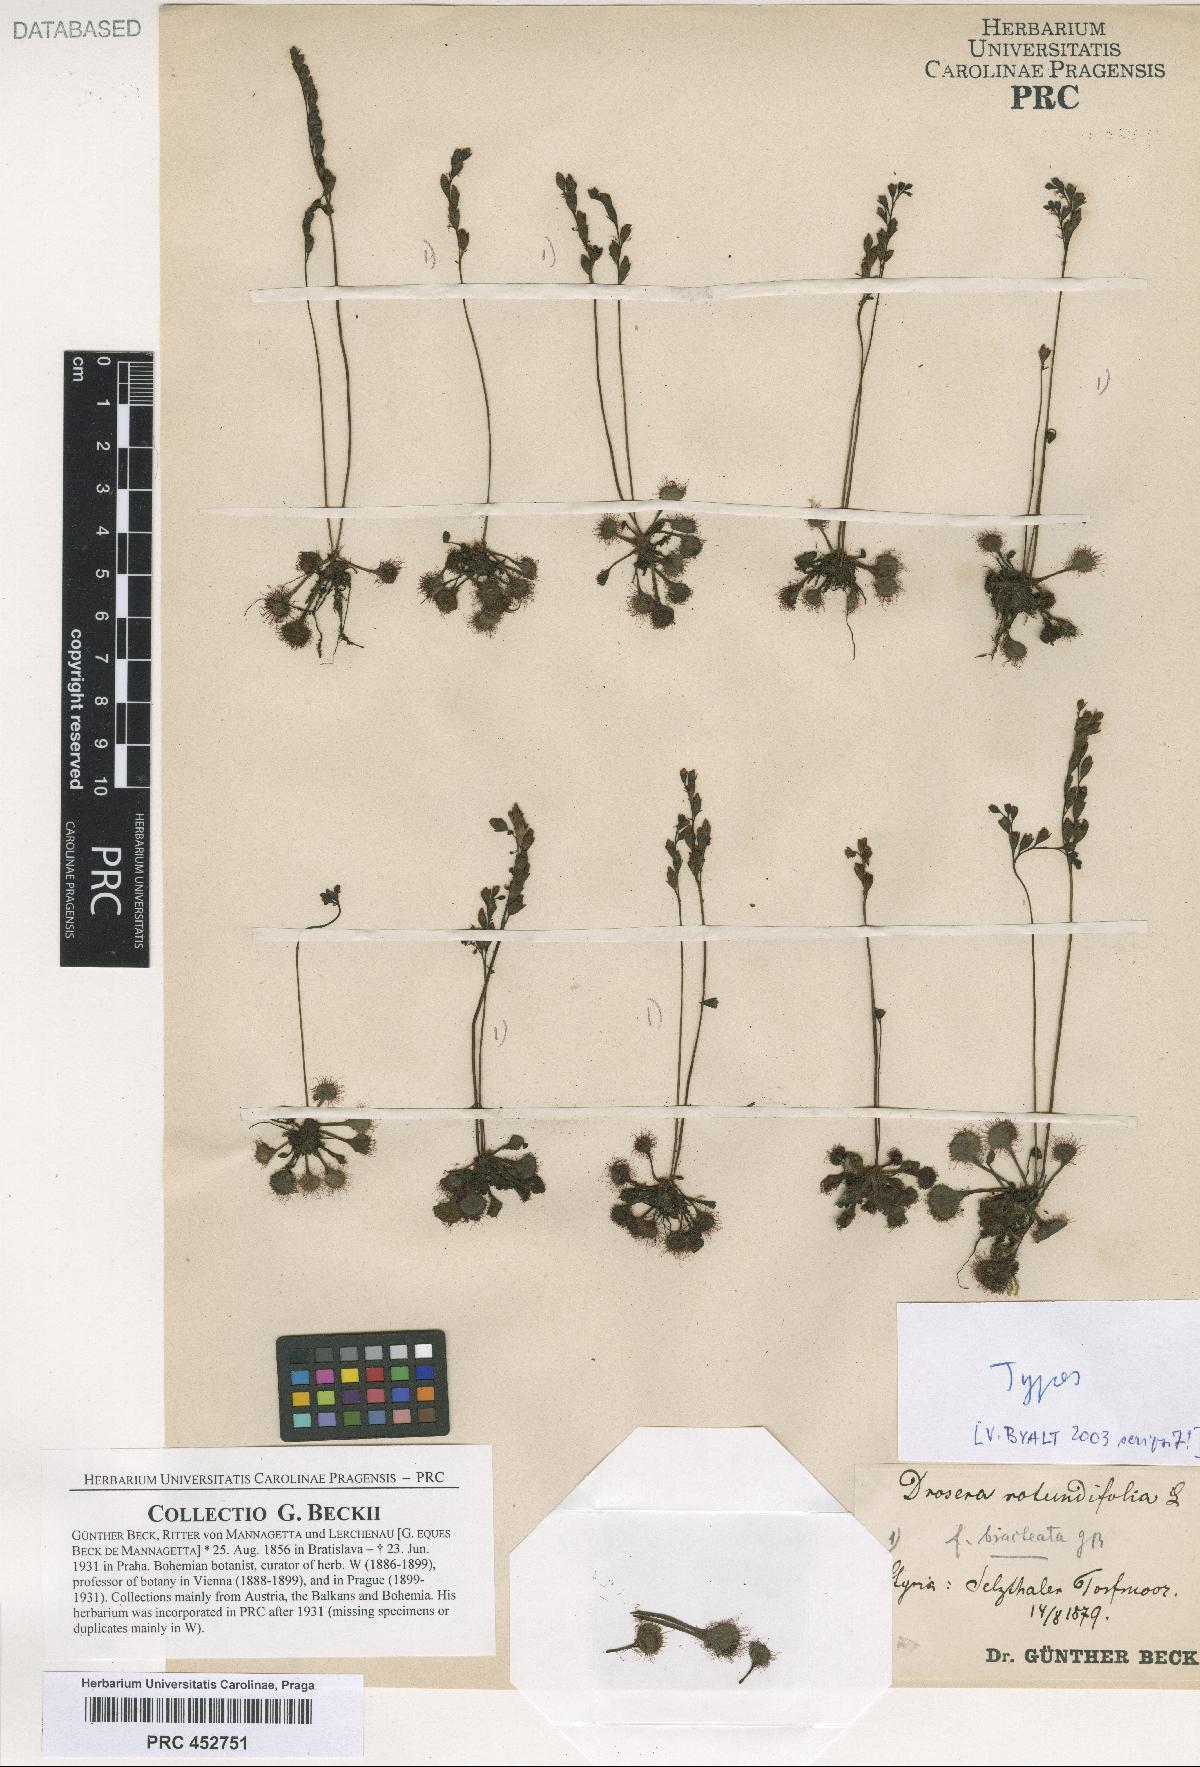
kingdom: Plantae
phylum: Tracheophyta
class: Magnoliopsida
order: Caryophyllales
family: Droseraceae
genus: Drosera
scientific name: Drosera rotundifolia
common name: Round-leaved sundew
